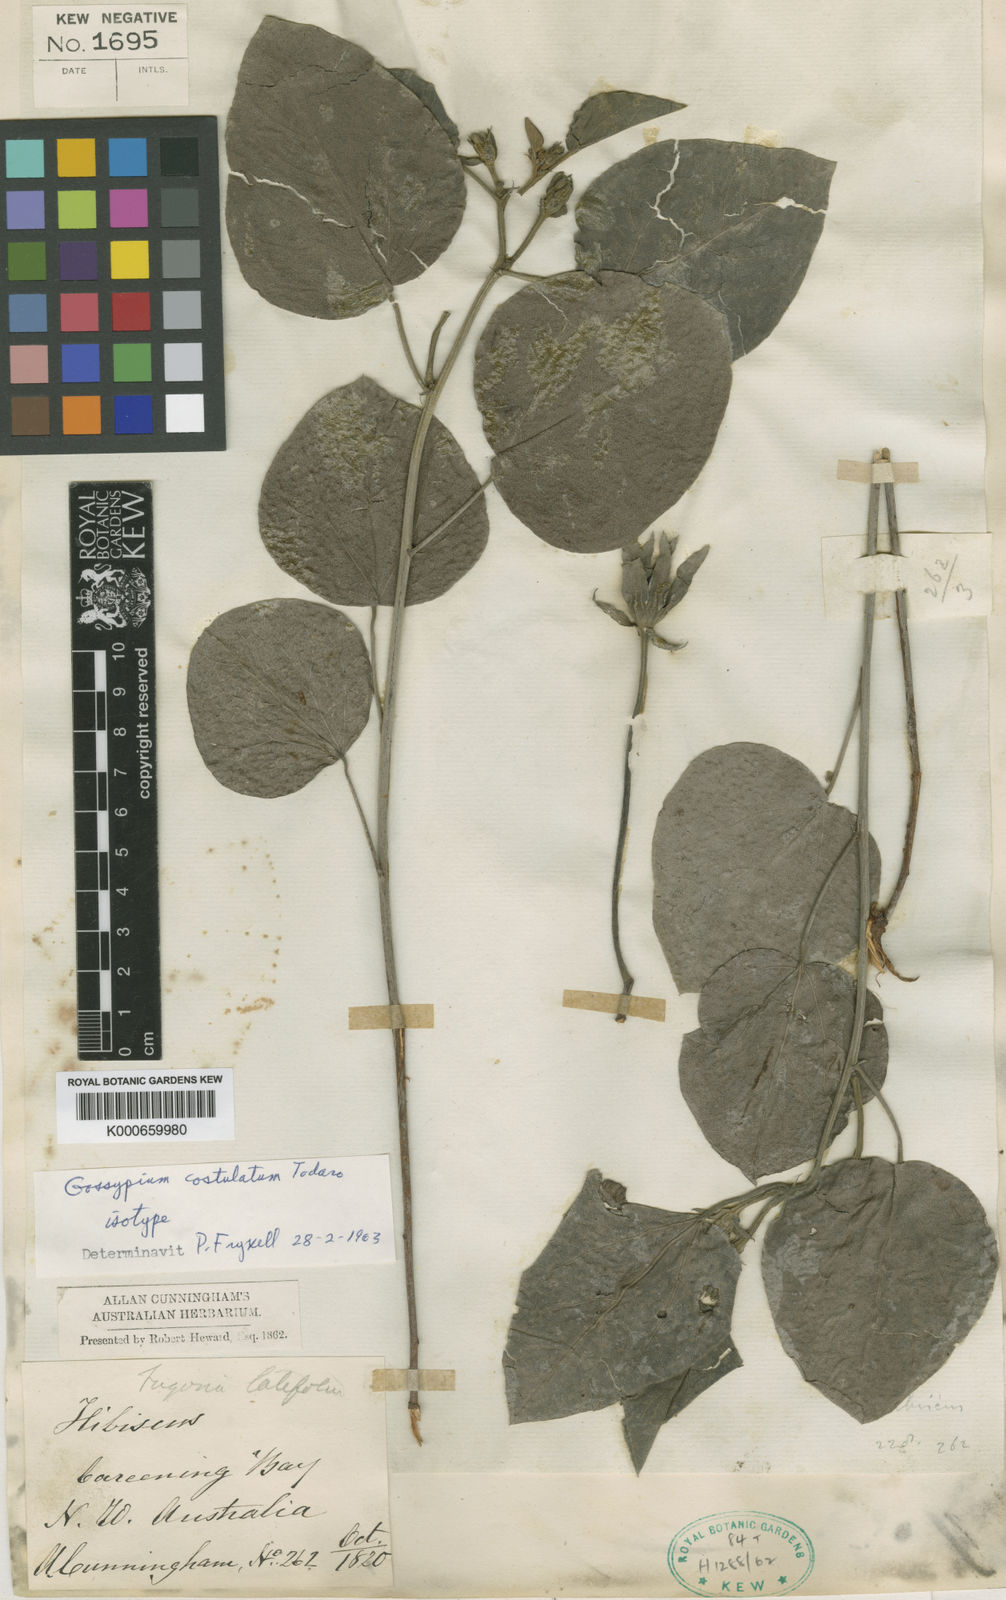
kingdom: Plantae
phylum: Tracheophyta
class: Magnoliopsida
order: Malvales
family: Malvaceae
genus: Gossypium
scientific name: Gossypium costulatum
